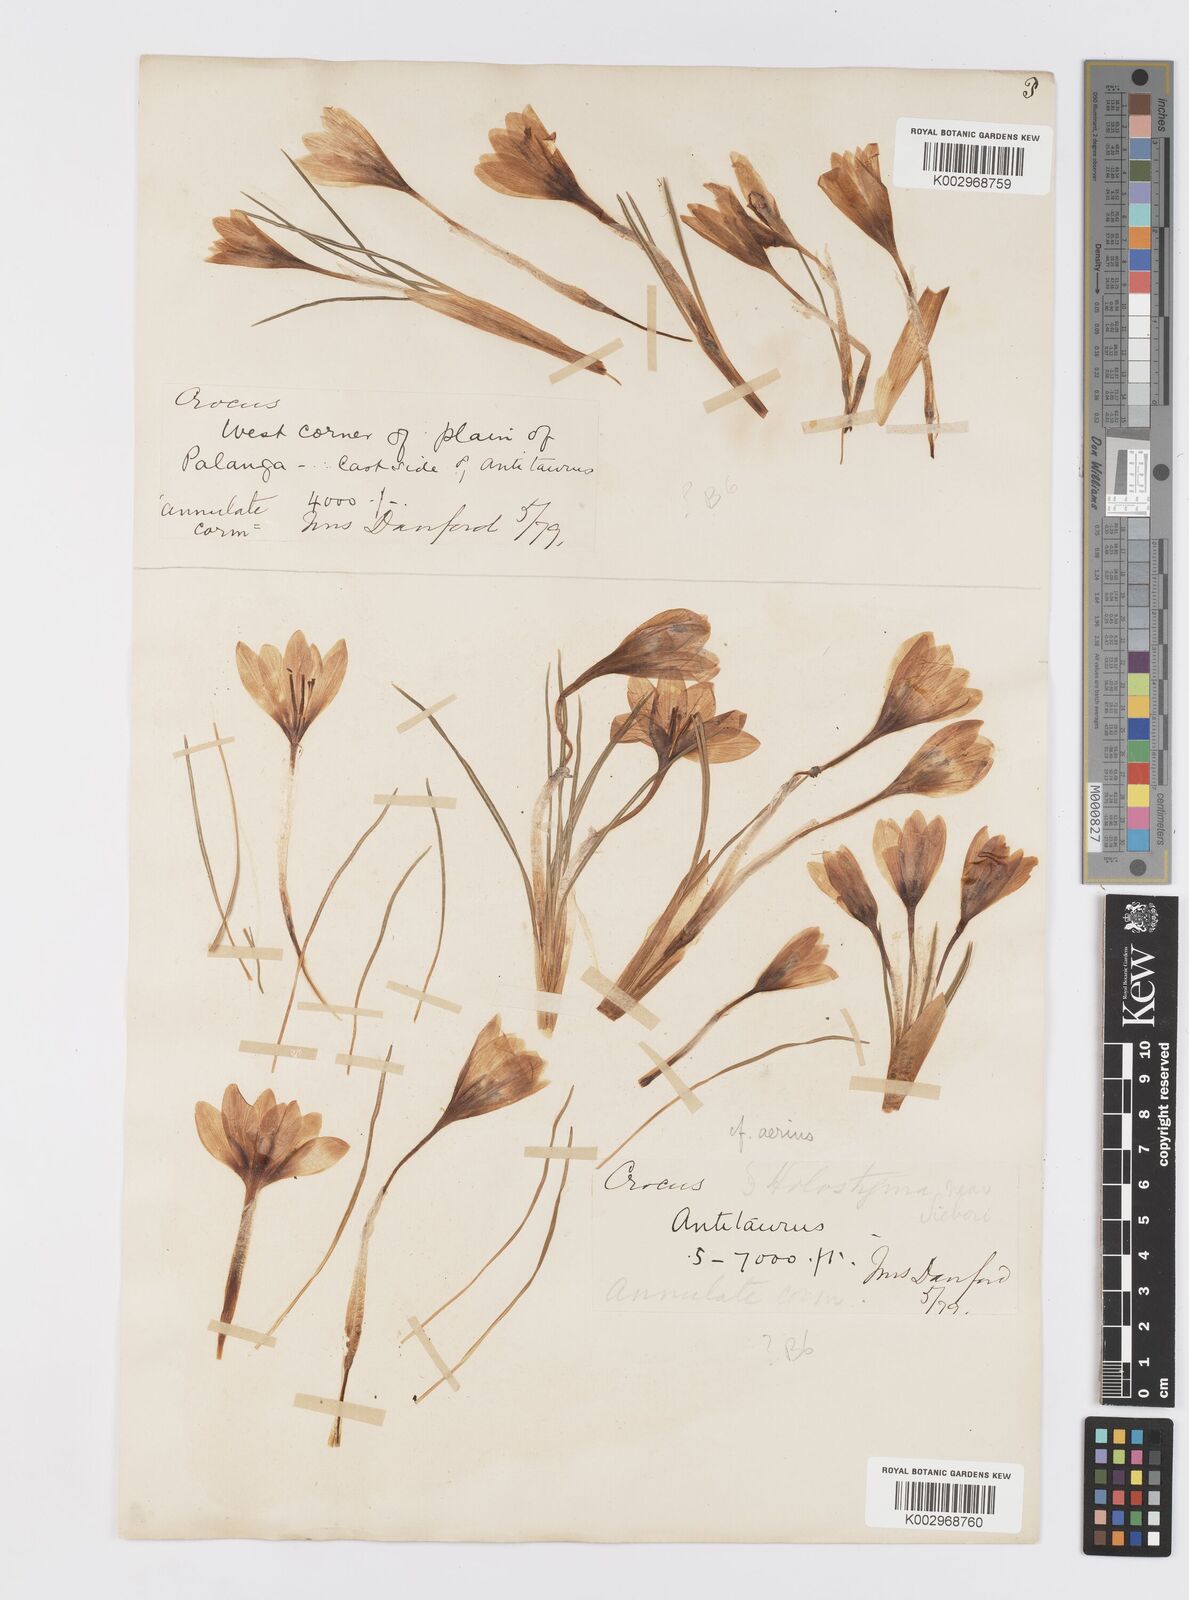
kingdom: Plantae
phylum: Tracheophyta
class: Liliopsida
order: Asparagales
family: Iridaceae
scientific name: Iridaceae
